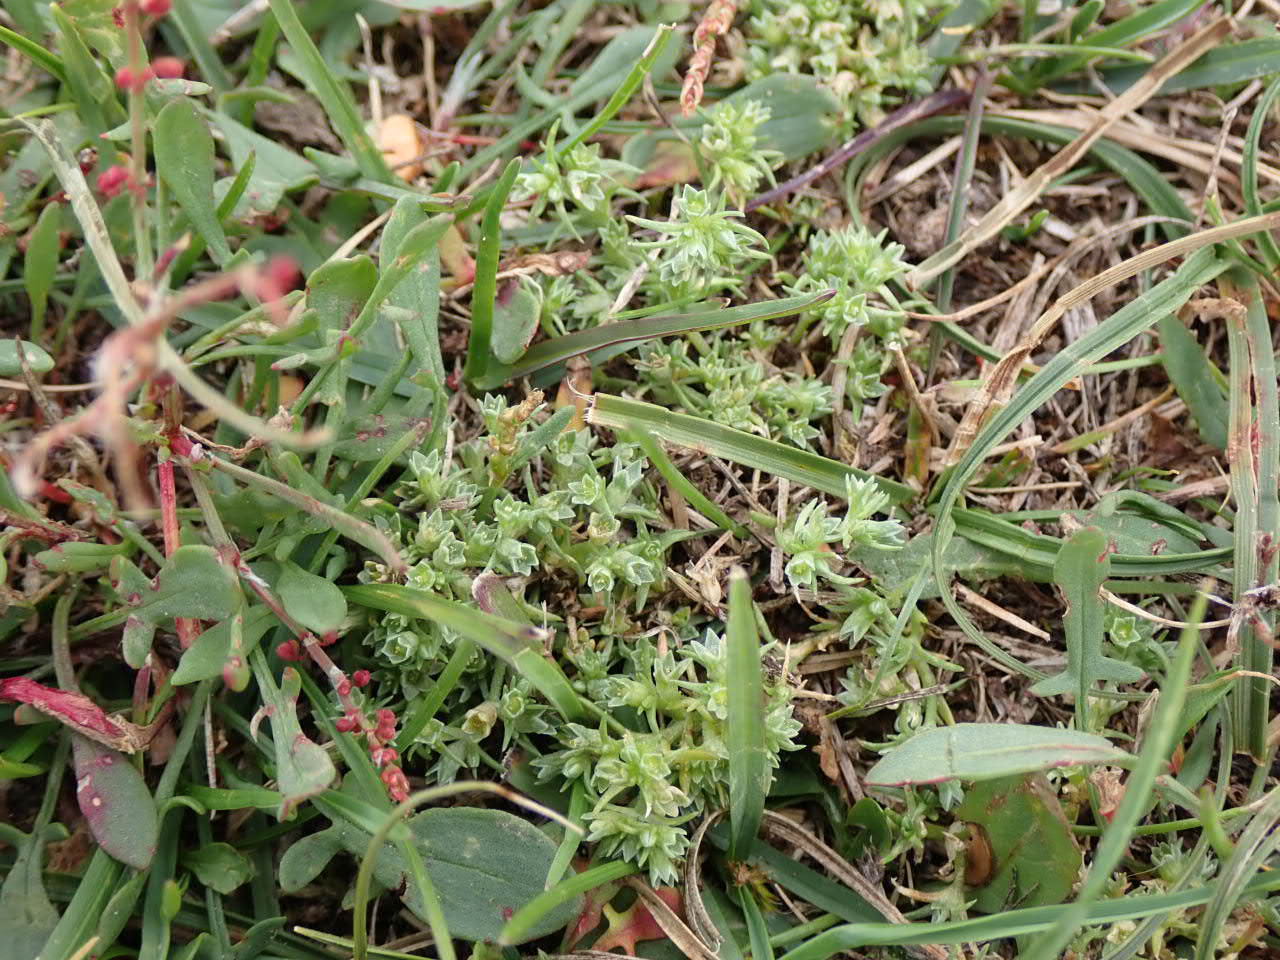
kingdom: Plantae
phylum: Tracheophyta
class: Magnoliopsida
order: Caryophyllales
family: Caryophyllaceae
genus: Scleranthus
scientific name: Scleranthus annuus
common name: Enårig knavel (underart)
